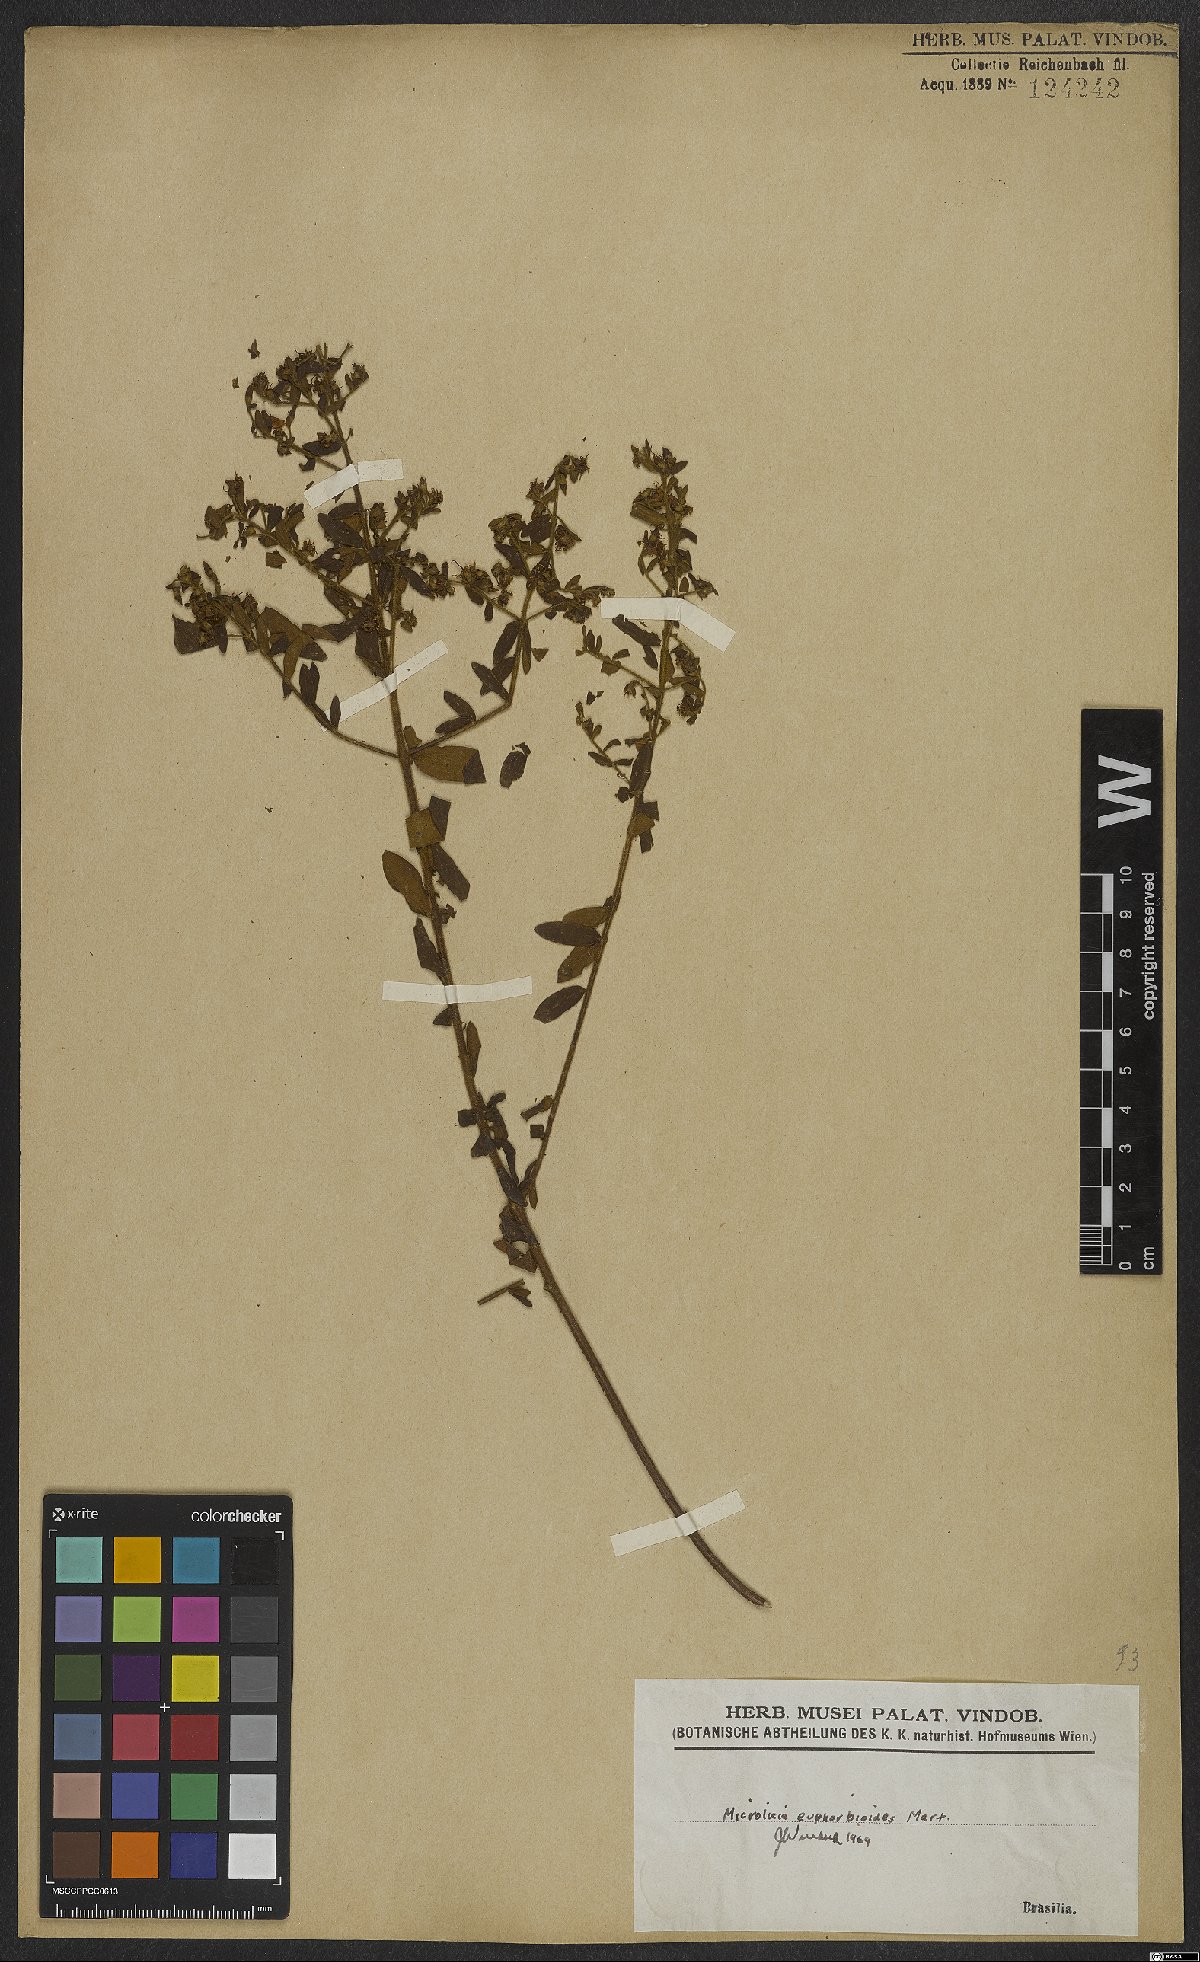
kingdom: Plantae
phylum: Tracheophyta
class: Magnoliopsida
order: Myrtales
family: Melastomataceae
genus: Microlicia
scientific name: Microlicia euphorbioides
